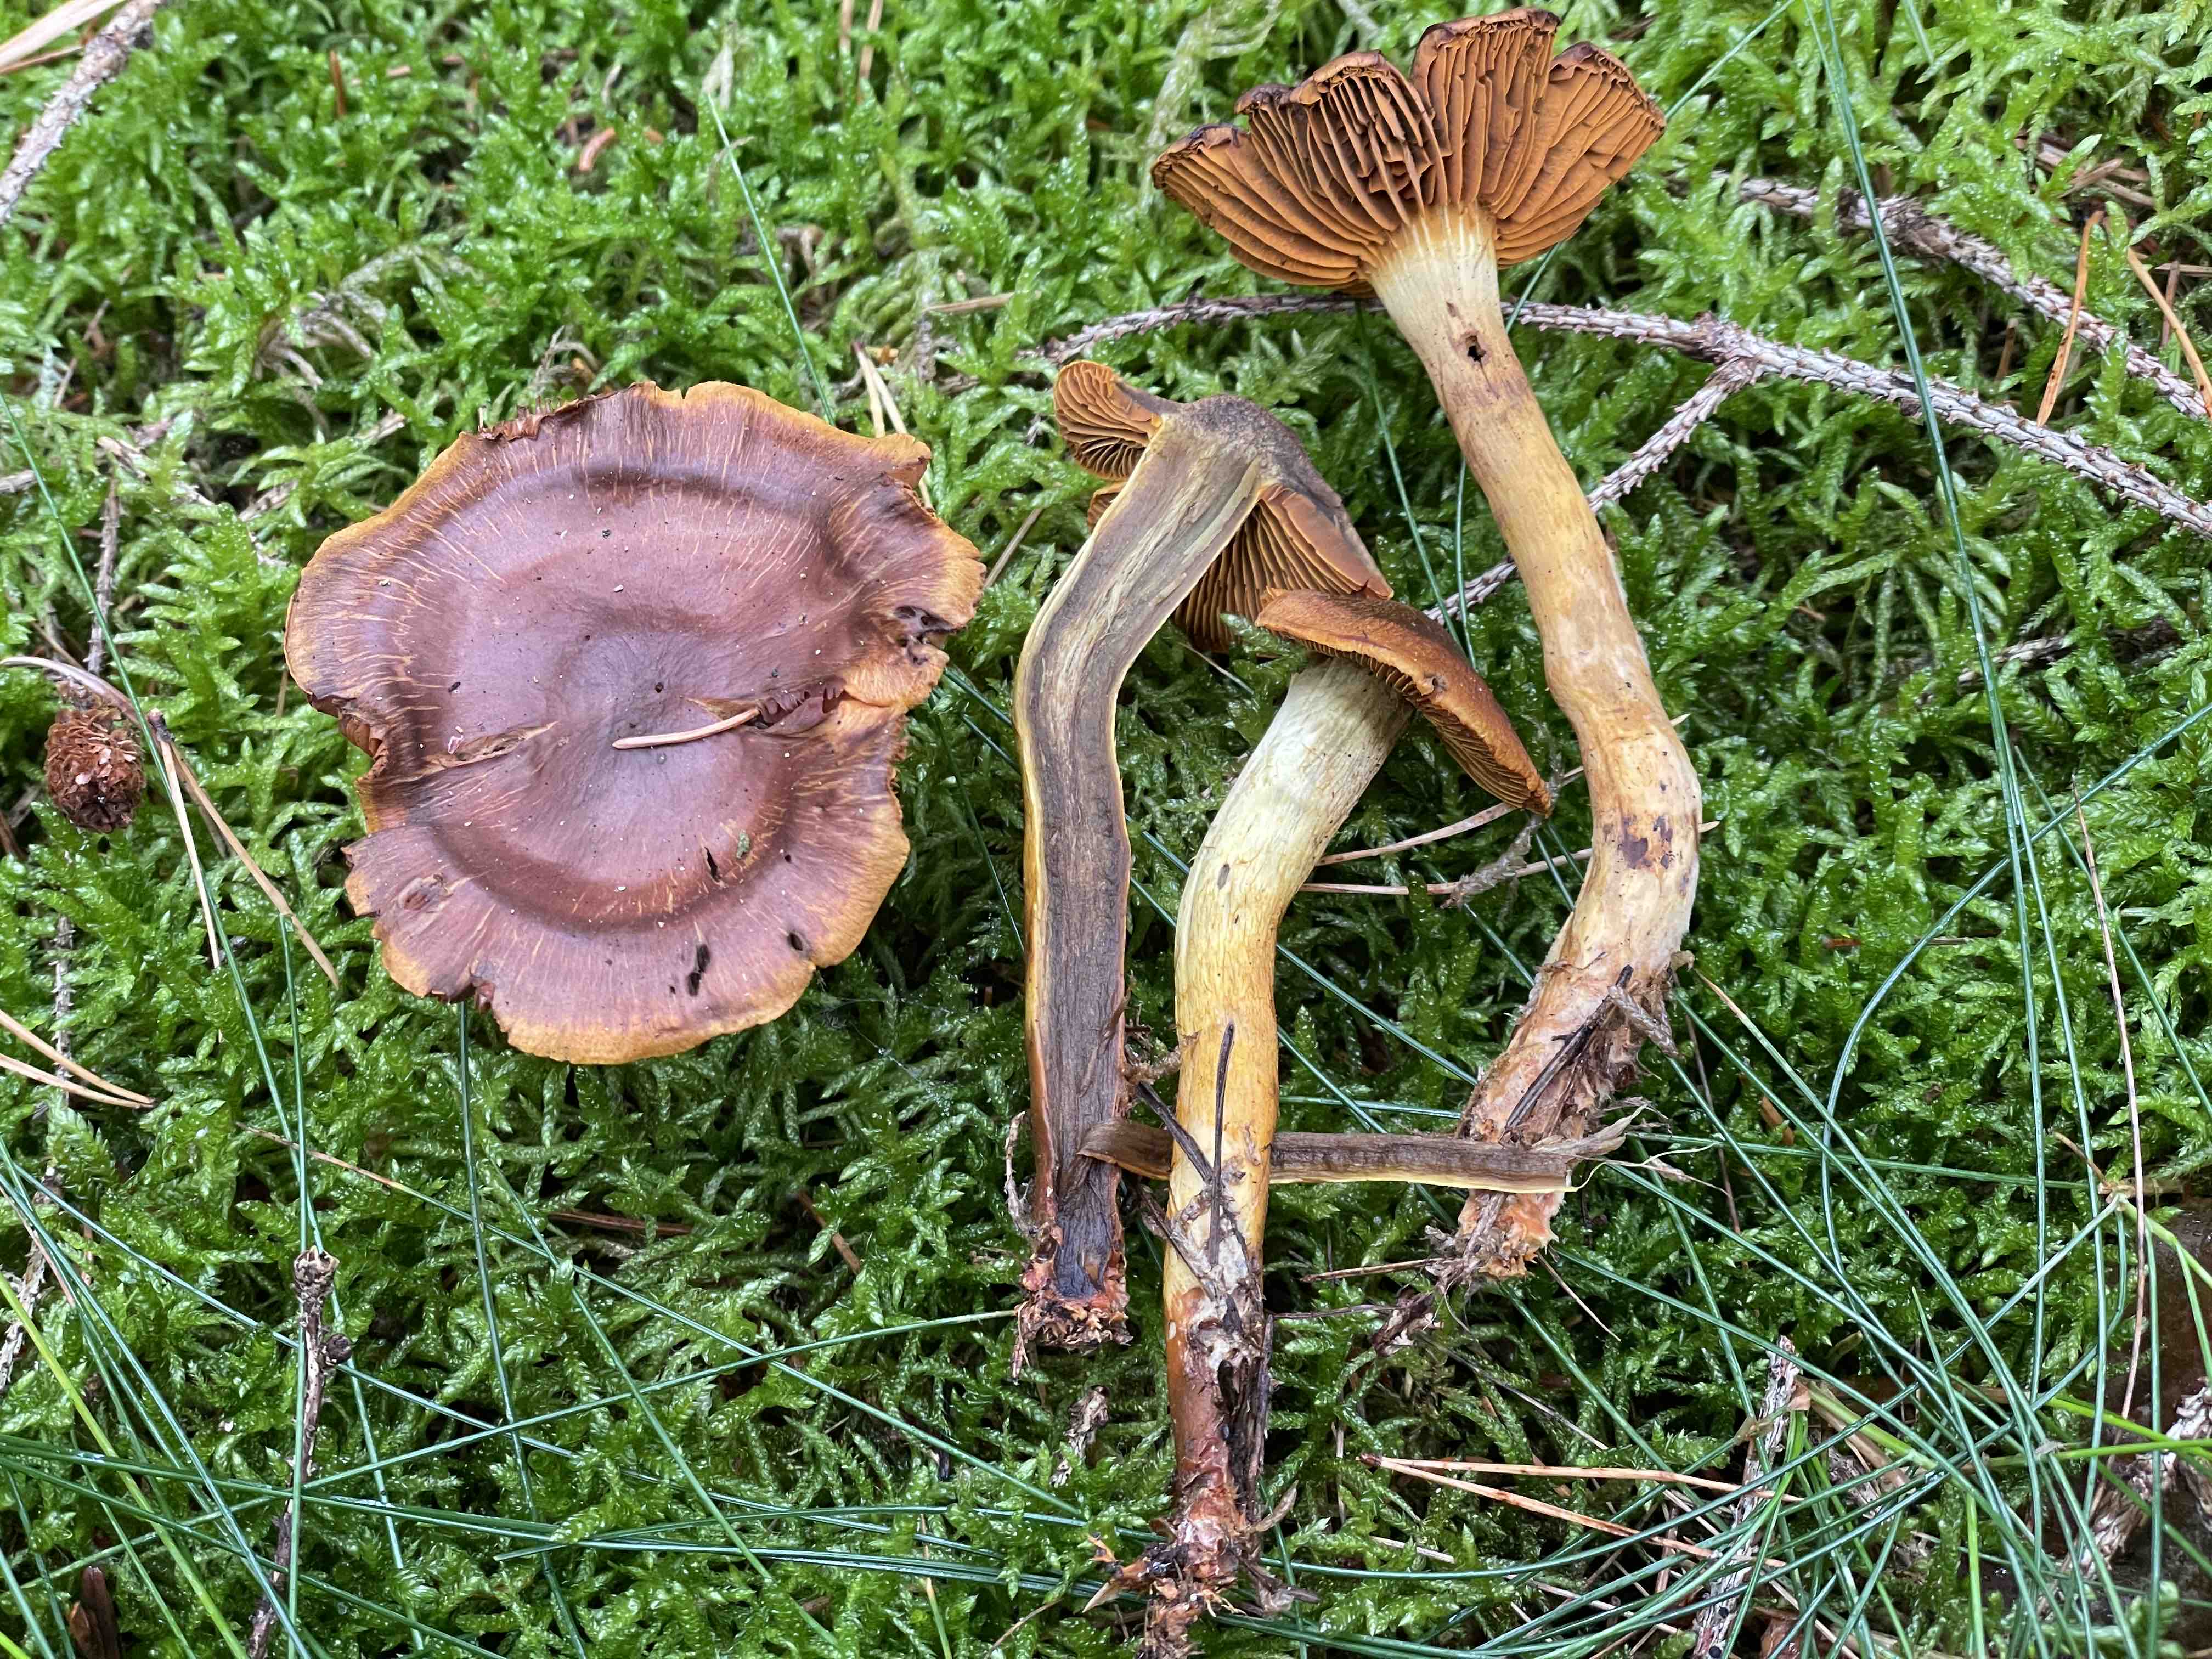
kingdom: Fungi
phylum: Basidiomycota
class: Agaricomycetes
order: Agaricales
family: Cortinariaceae
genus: Cortinarius
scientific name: Cortinarius malicorius
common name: grønkødet slørhat
